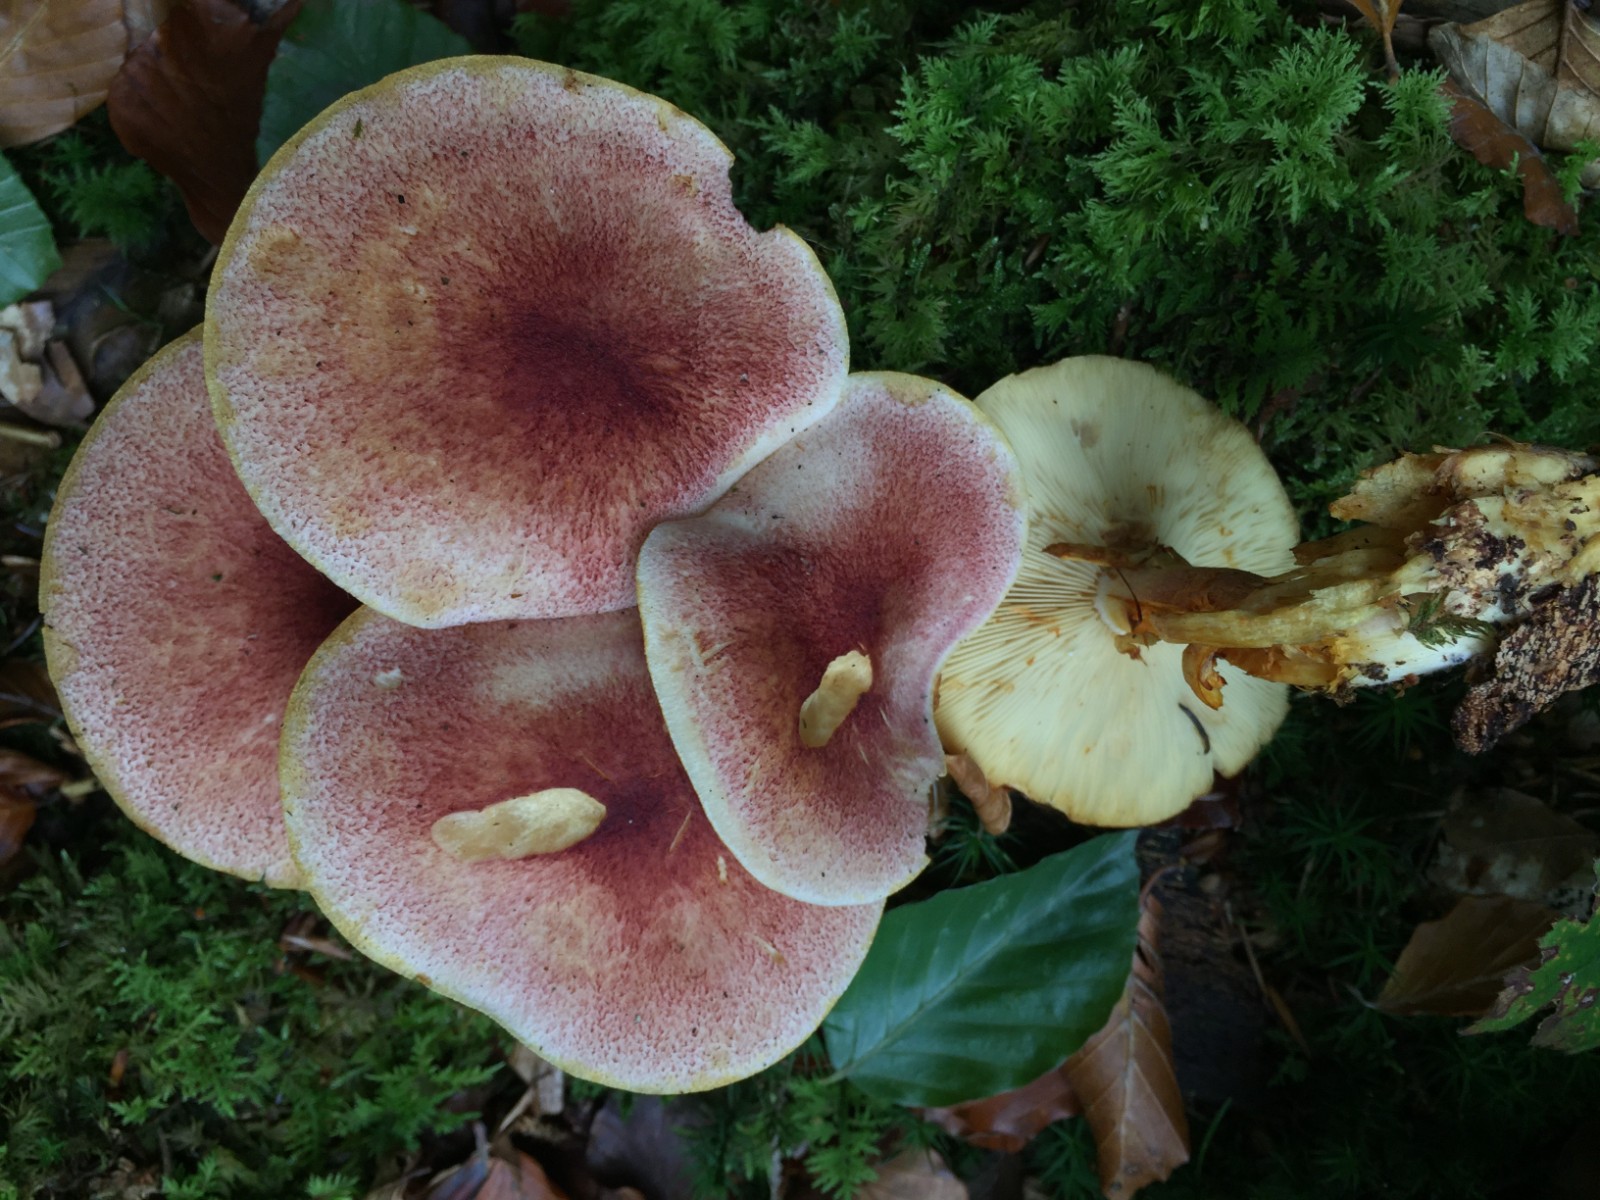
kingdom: Fungi
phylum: Basidiomycota
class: Agaricomycetes
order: Agaricales
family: Tricholomataceae
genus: Tricholomopsis
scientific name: Tricholomopsis rutilans
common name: purpur-væbnerhat
